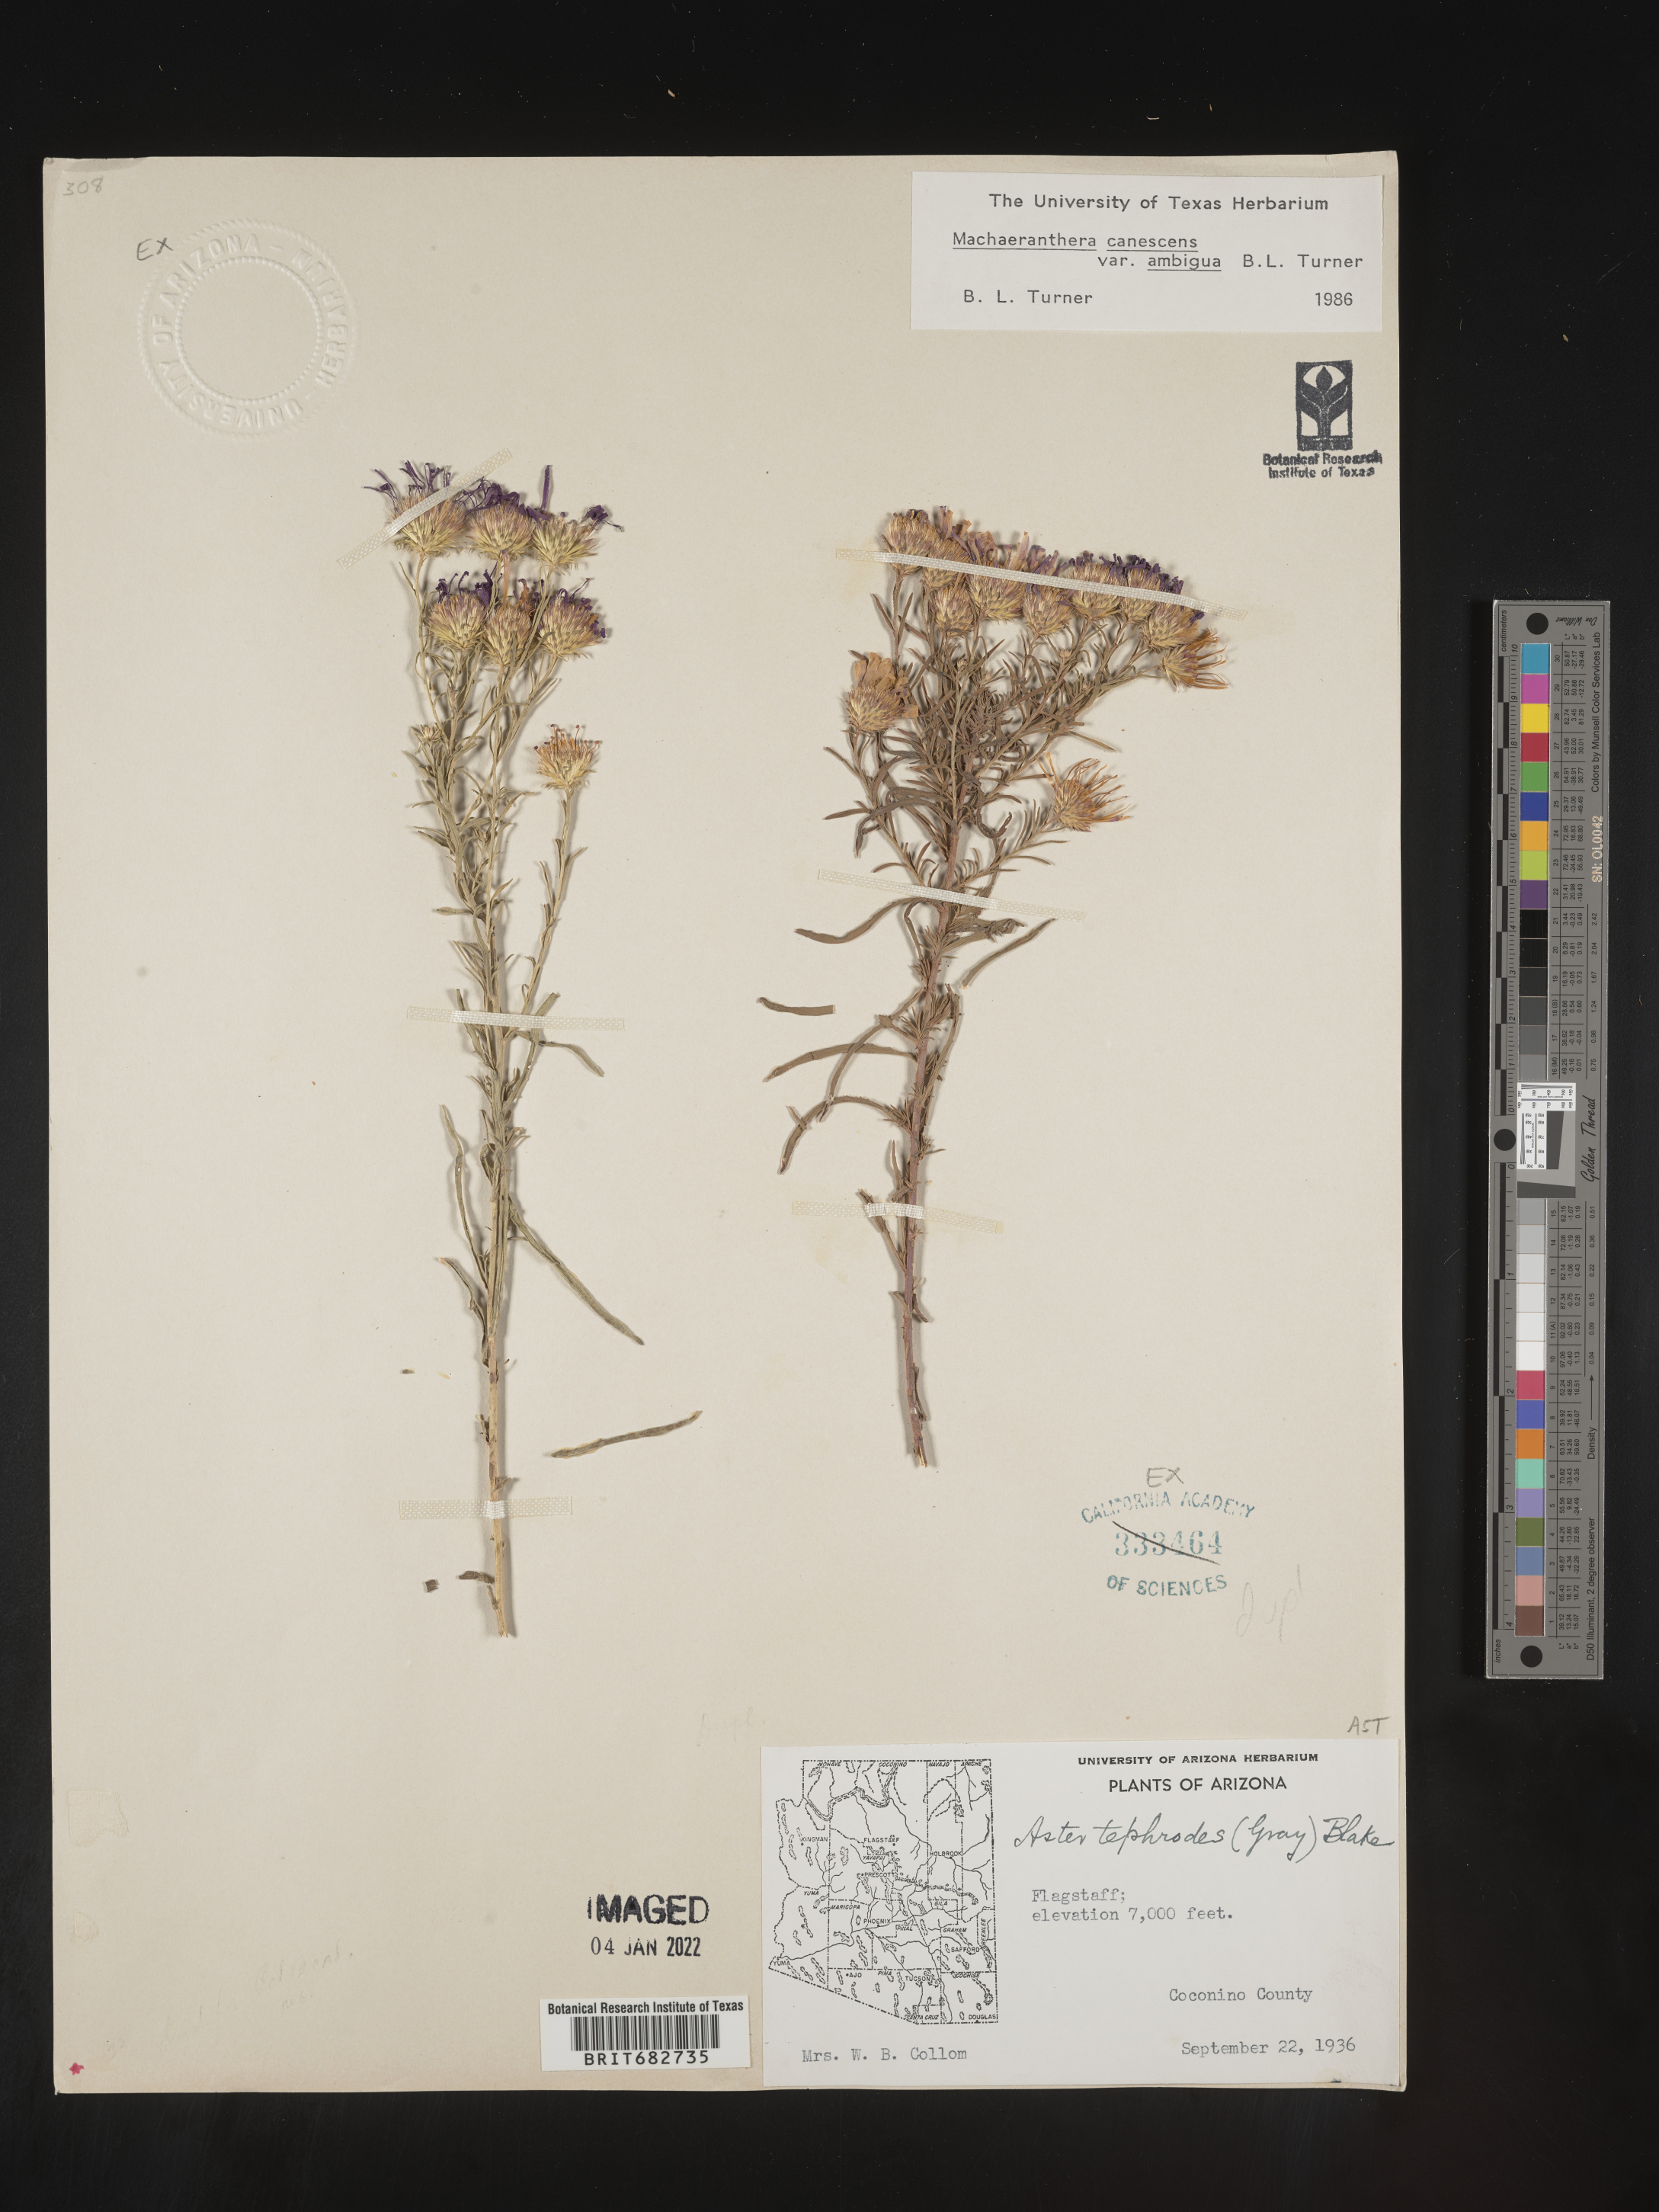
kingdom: Plantae
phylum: Tracheophyta
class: Magnoliopsida
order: Asterales
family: Asteraceae
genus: Aster
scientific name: Aster
